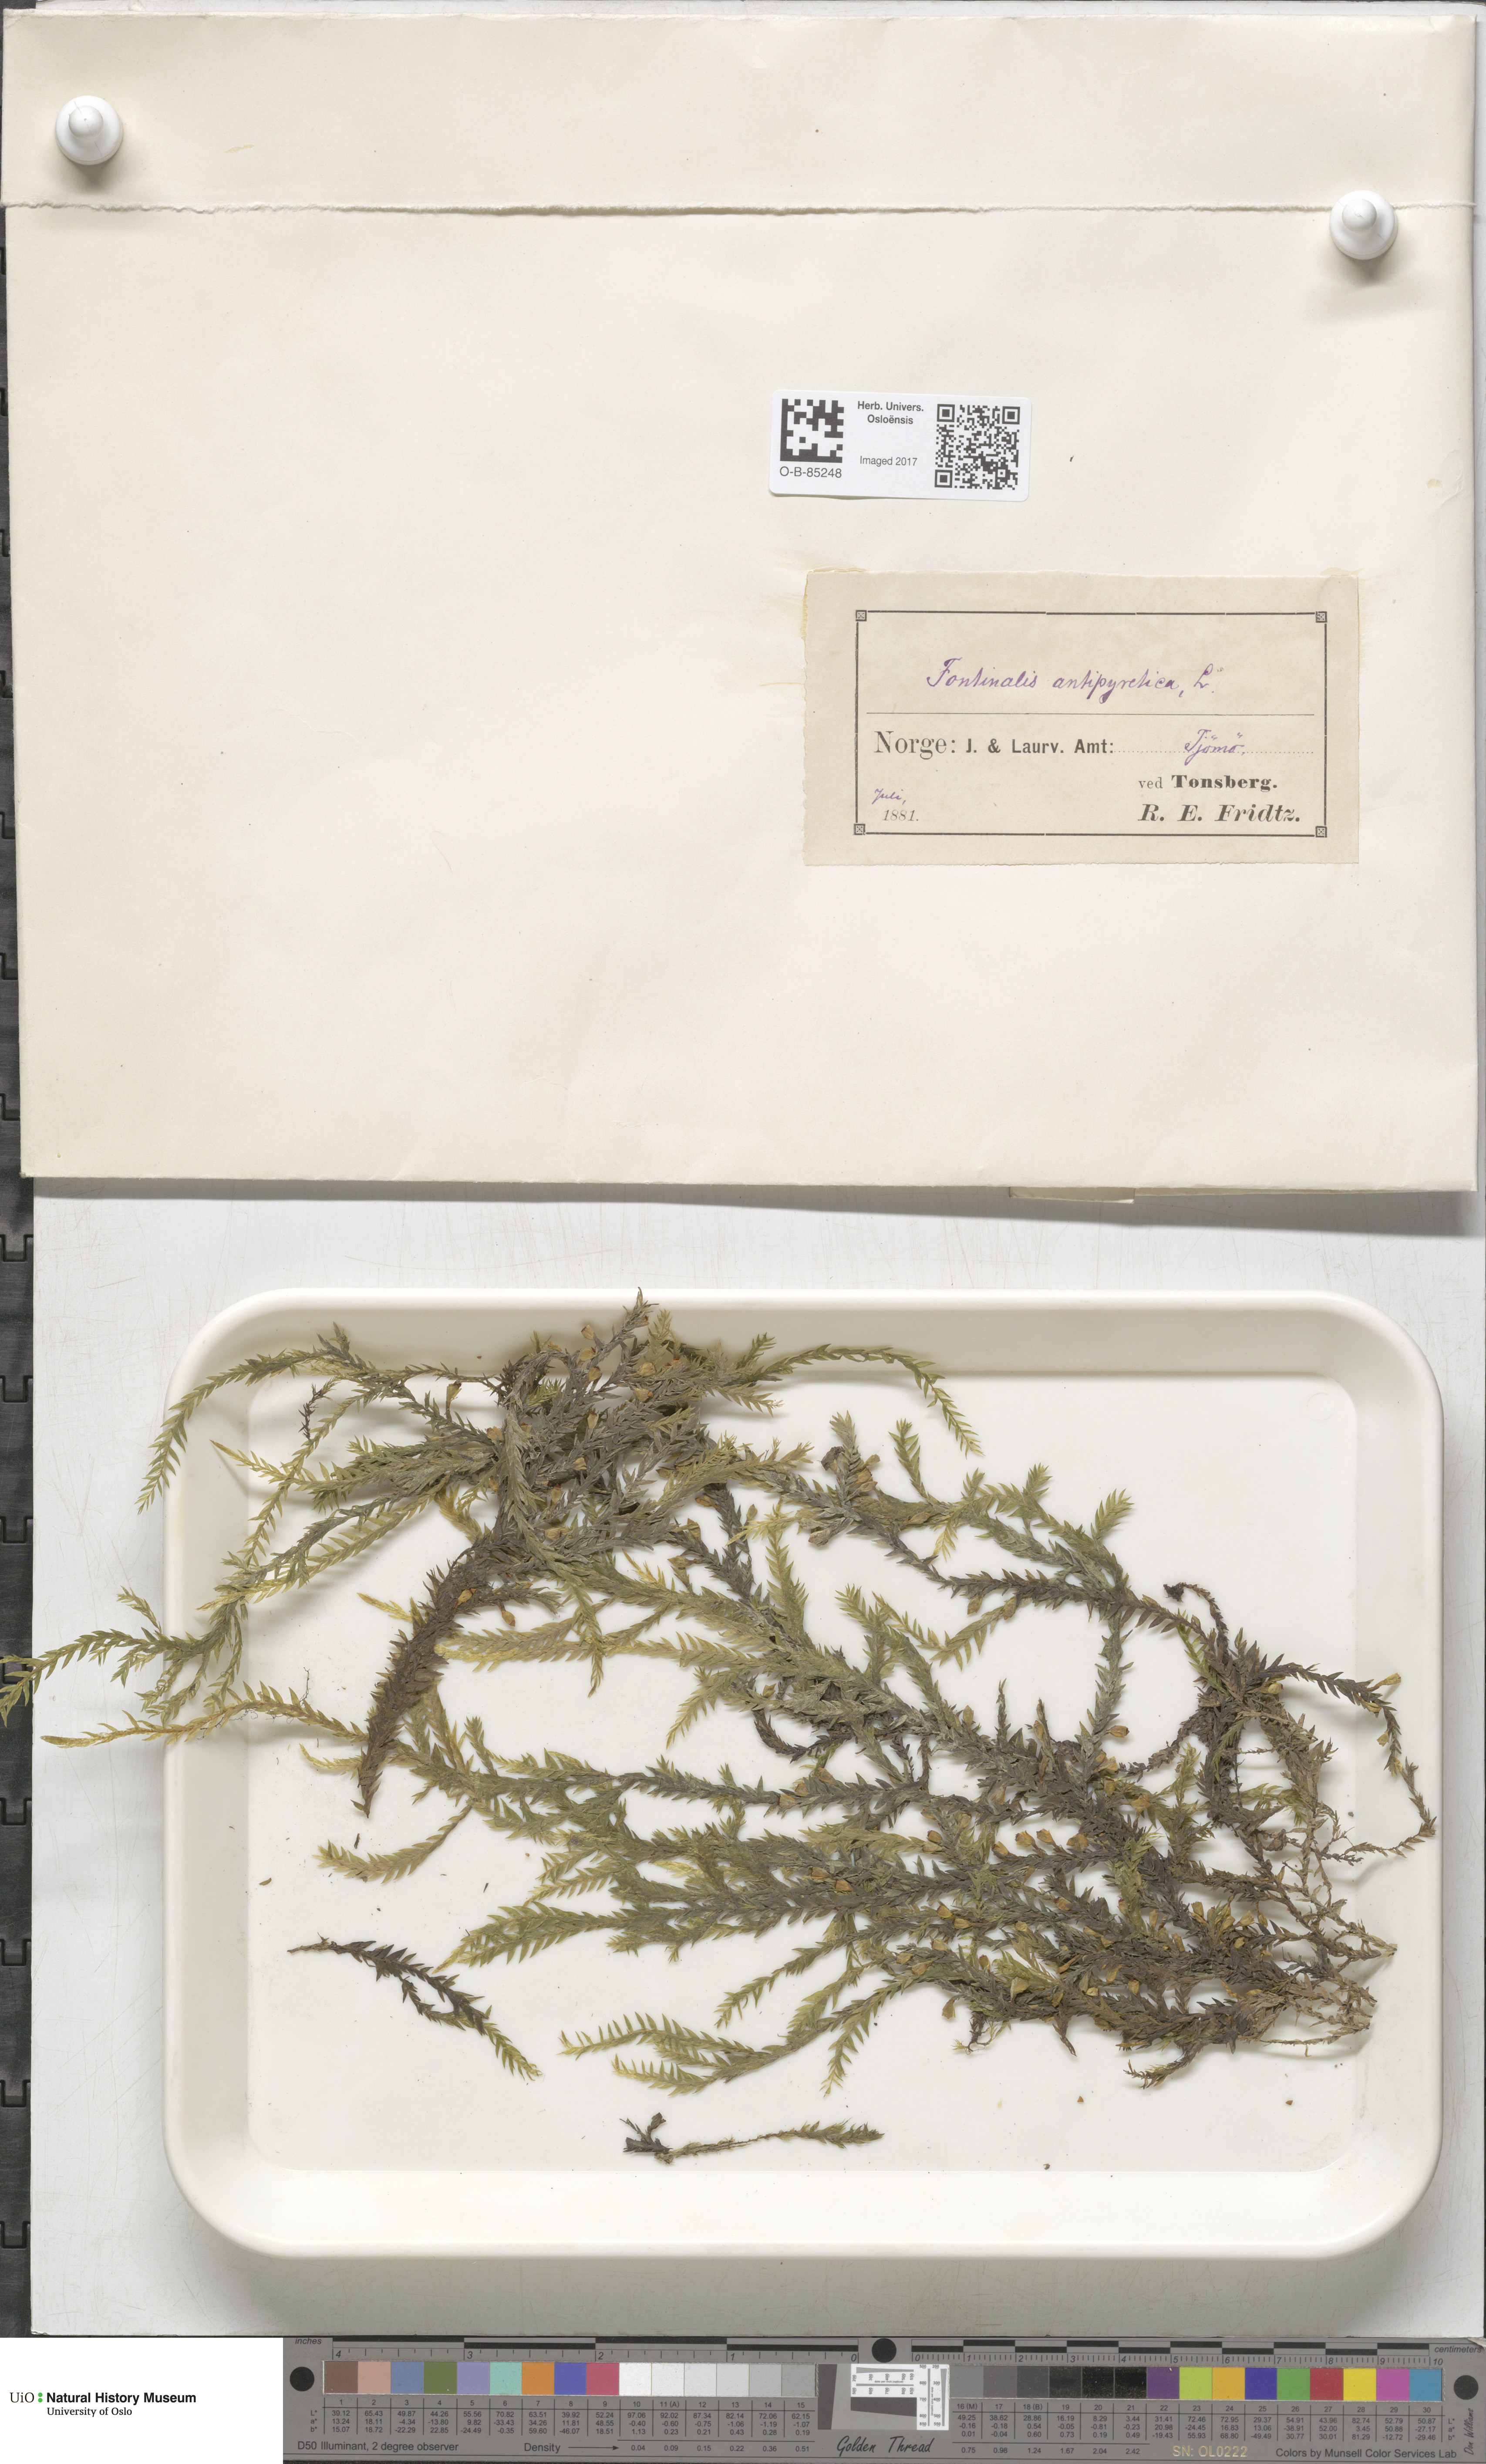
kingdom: Plantae
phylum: Bryophyta
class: Bryopsida
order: Hypnales
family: Fontinalaceae
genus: Fontinalis
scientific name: Fontinalis antipyretica
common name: Greater water-moss
